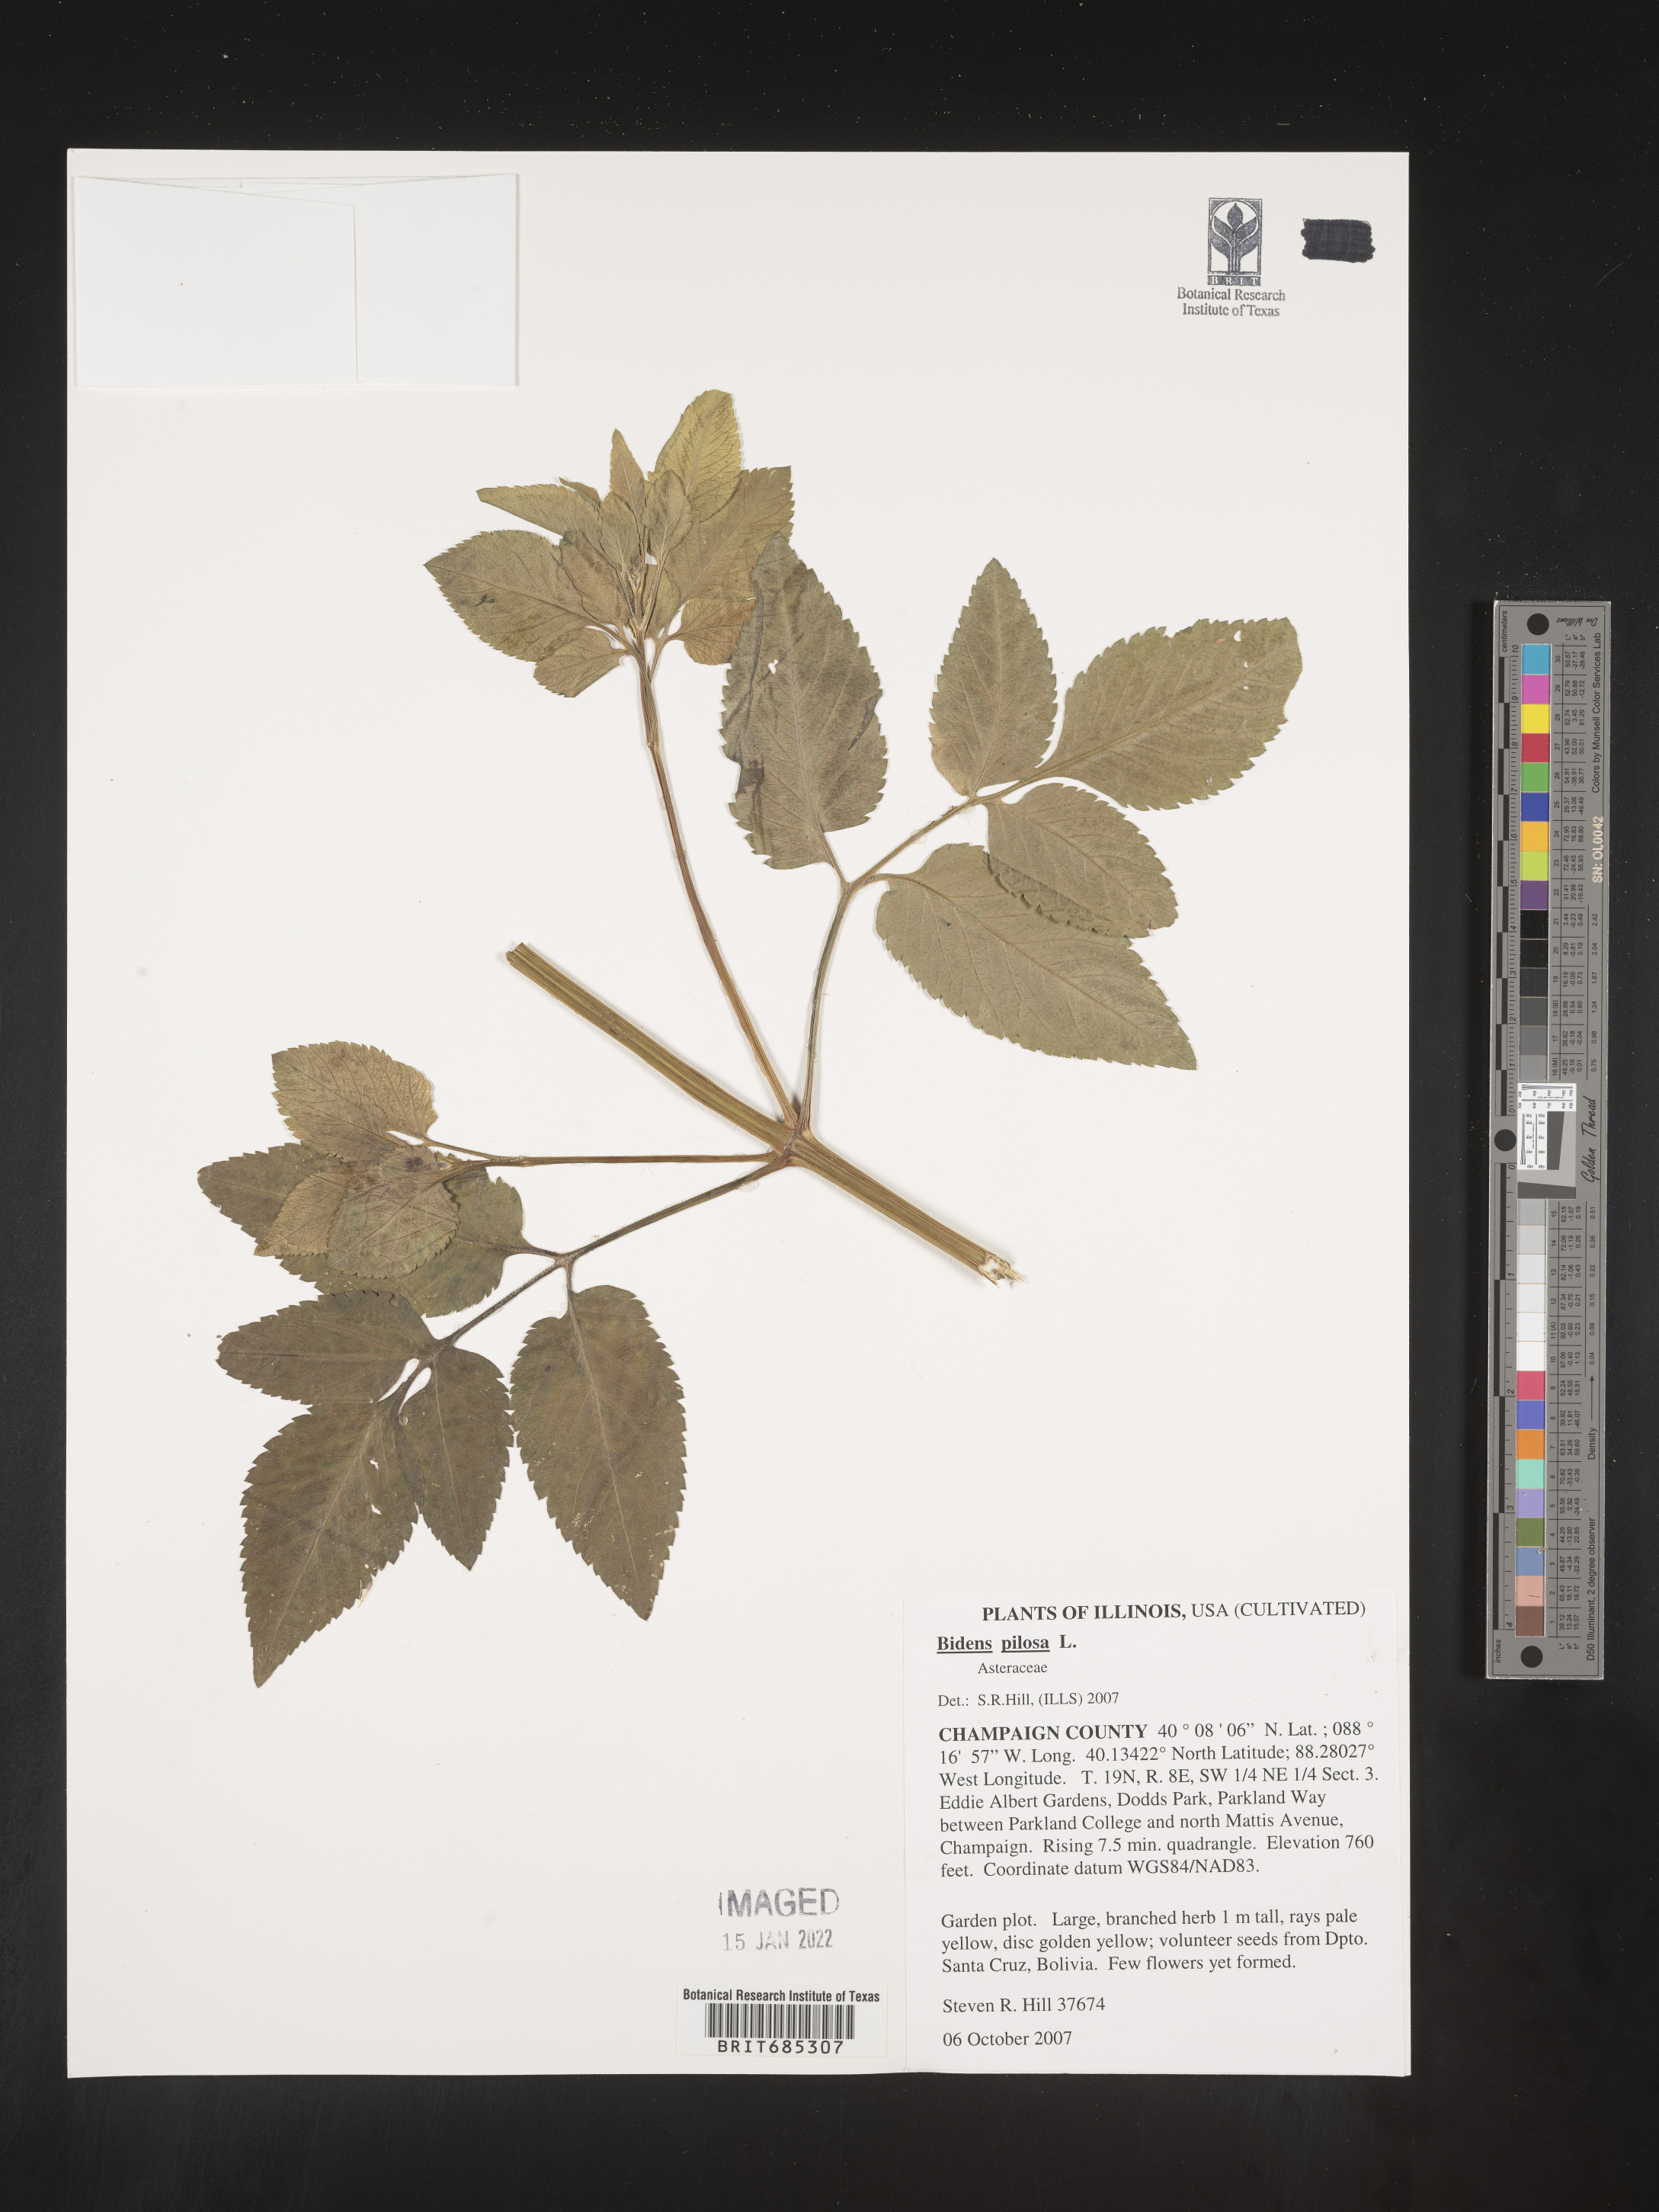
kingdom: Plantae
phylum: Tracheophyta
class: Magnoliopsida
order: Asterales
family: Asteraceae
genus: Bidens
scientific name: Bidens
